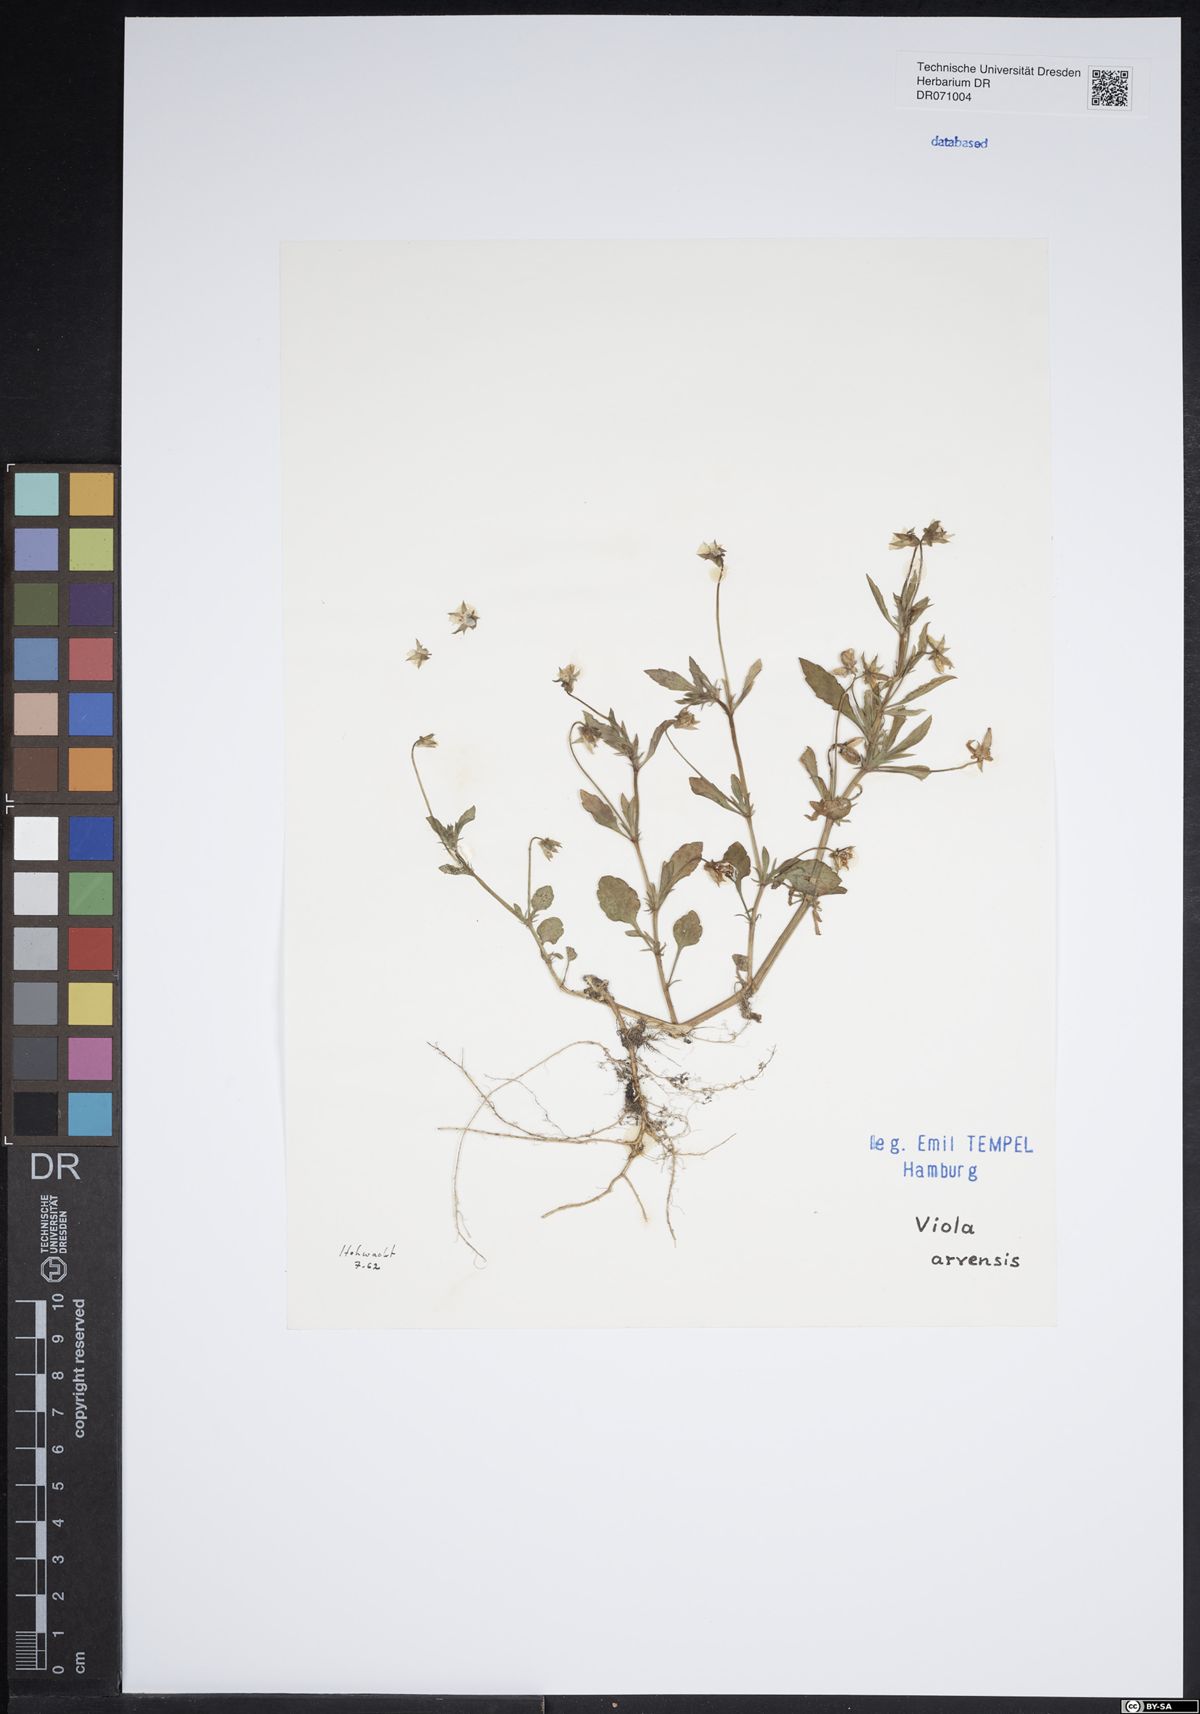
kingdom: Plantae
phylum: Tracheophyta
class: Magnoliopsida
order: Malpighiales
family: Violaceae
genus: Viola
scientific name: Viola arvensis
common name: Field pansy
